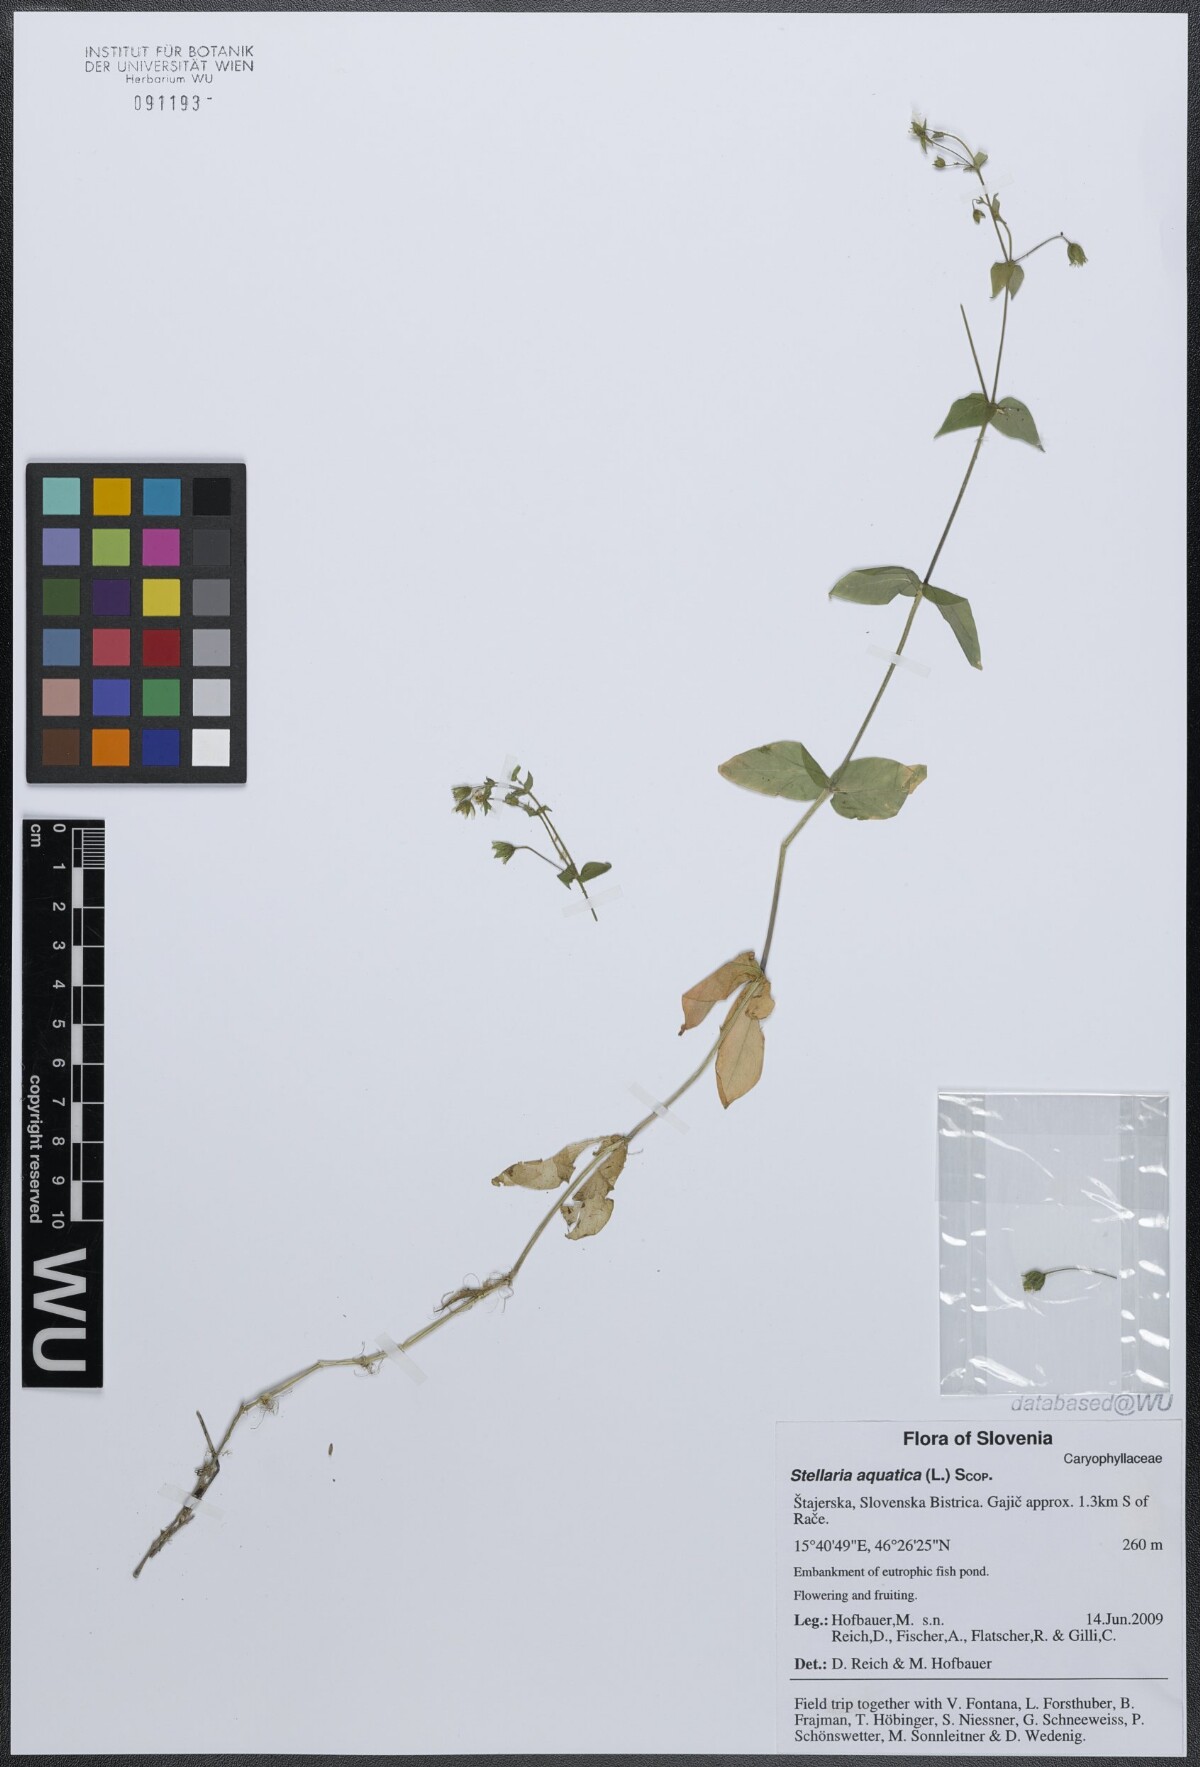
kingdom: Plantae
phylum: Tracheophyta
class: Magnoliopsida
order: Caryophyllales
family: Caryophyllaceae
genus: Stellaria
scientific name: Stellaria aquatica
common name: Water chickweed
